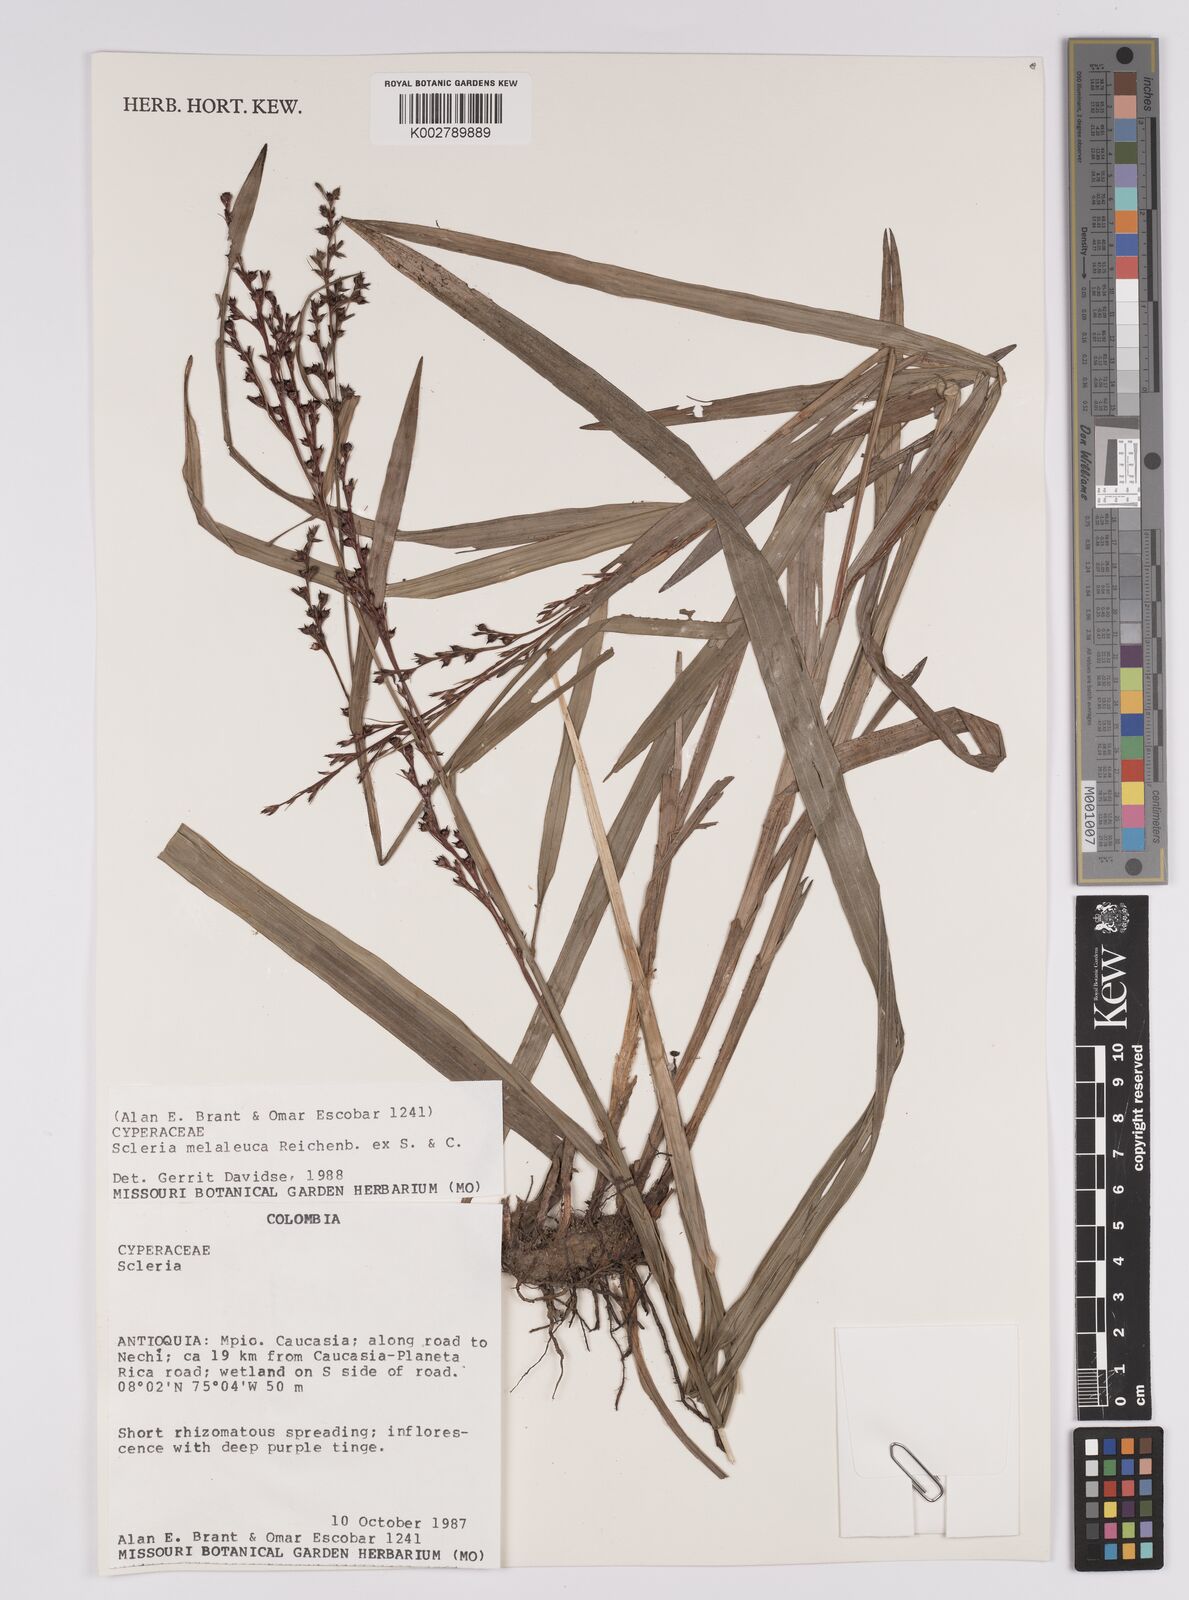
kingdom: Plantae
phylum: Tracheophyta
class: Liliopsida
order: Poales
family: Cyperaceae
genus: Scleria
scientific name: Scleria gaertneri
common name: Cortadera blanca
